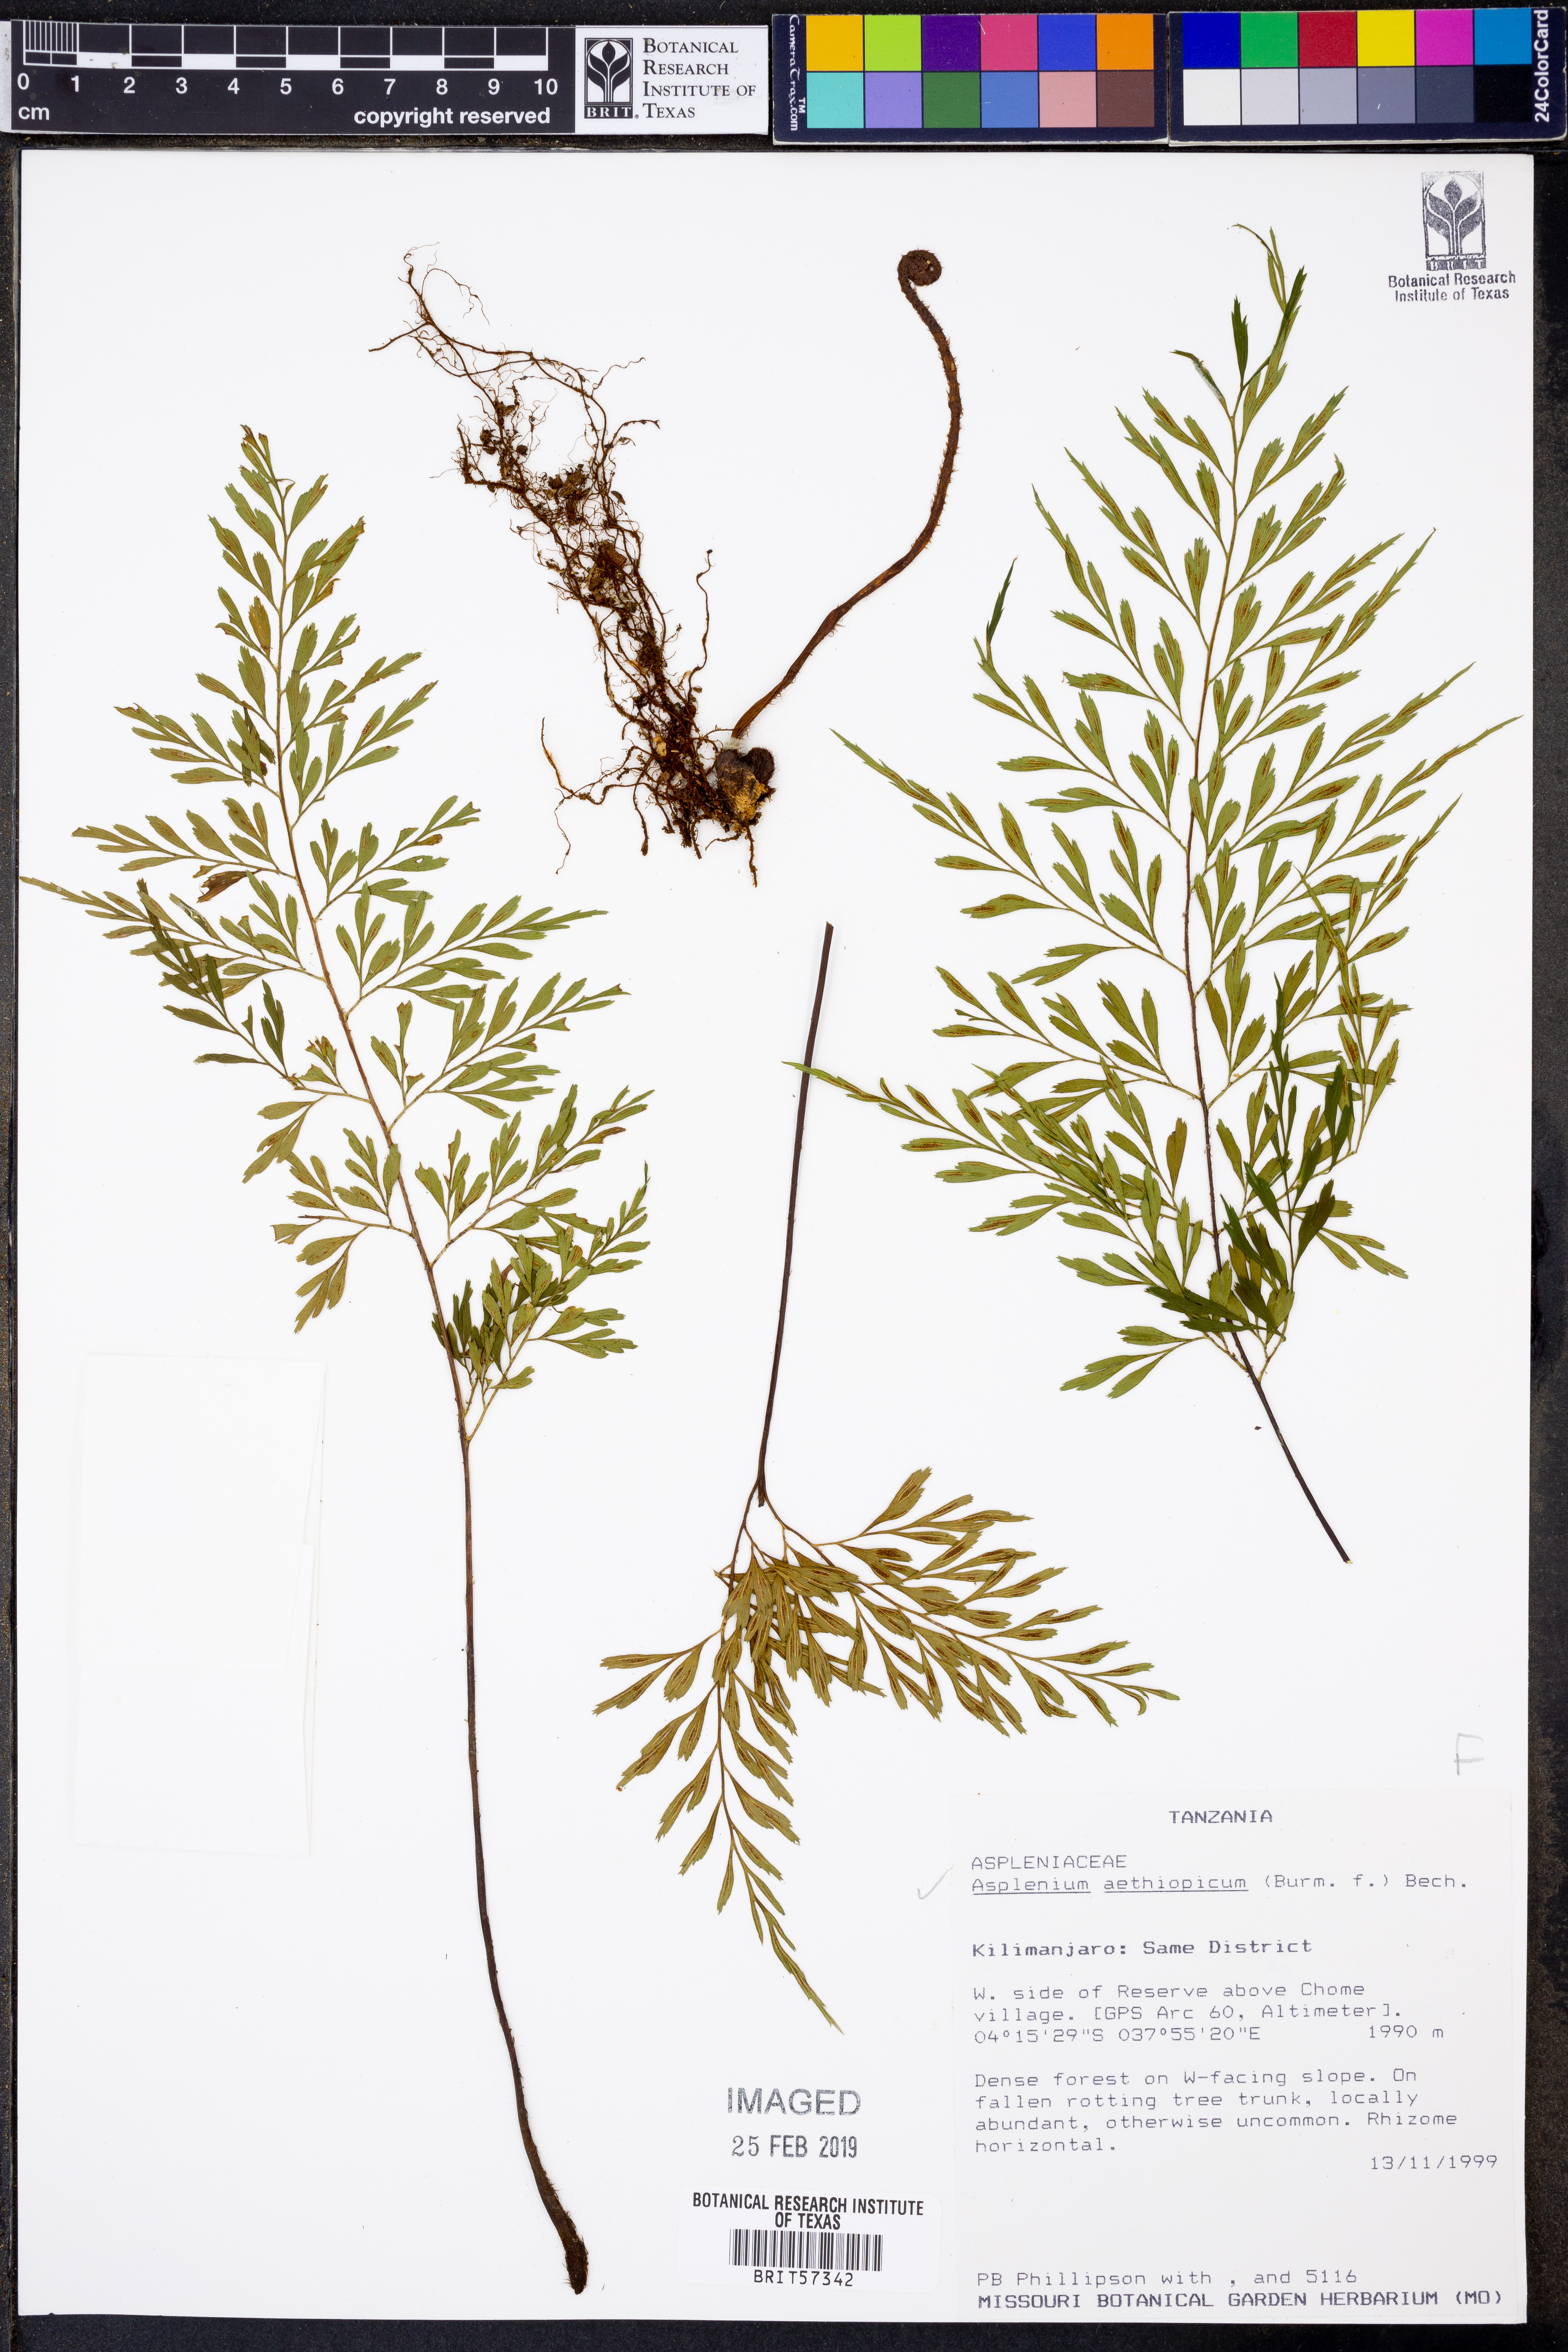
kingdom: Plantae
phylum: Tracheophyta
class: Polypodiopsida
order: Polypodiales
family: Aspleniaceae
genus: Asplenium
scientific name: Asplenium aethiopicum
